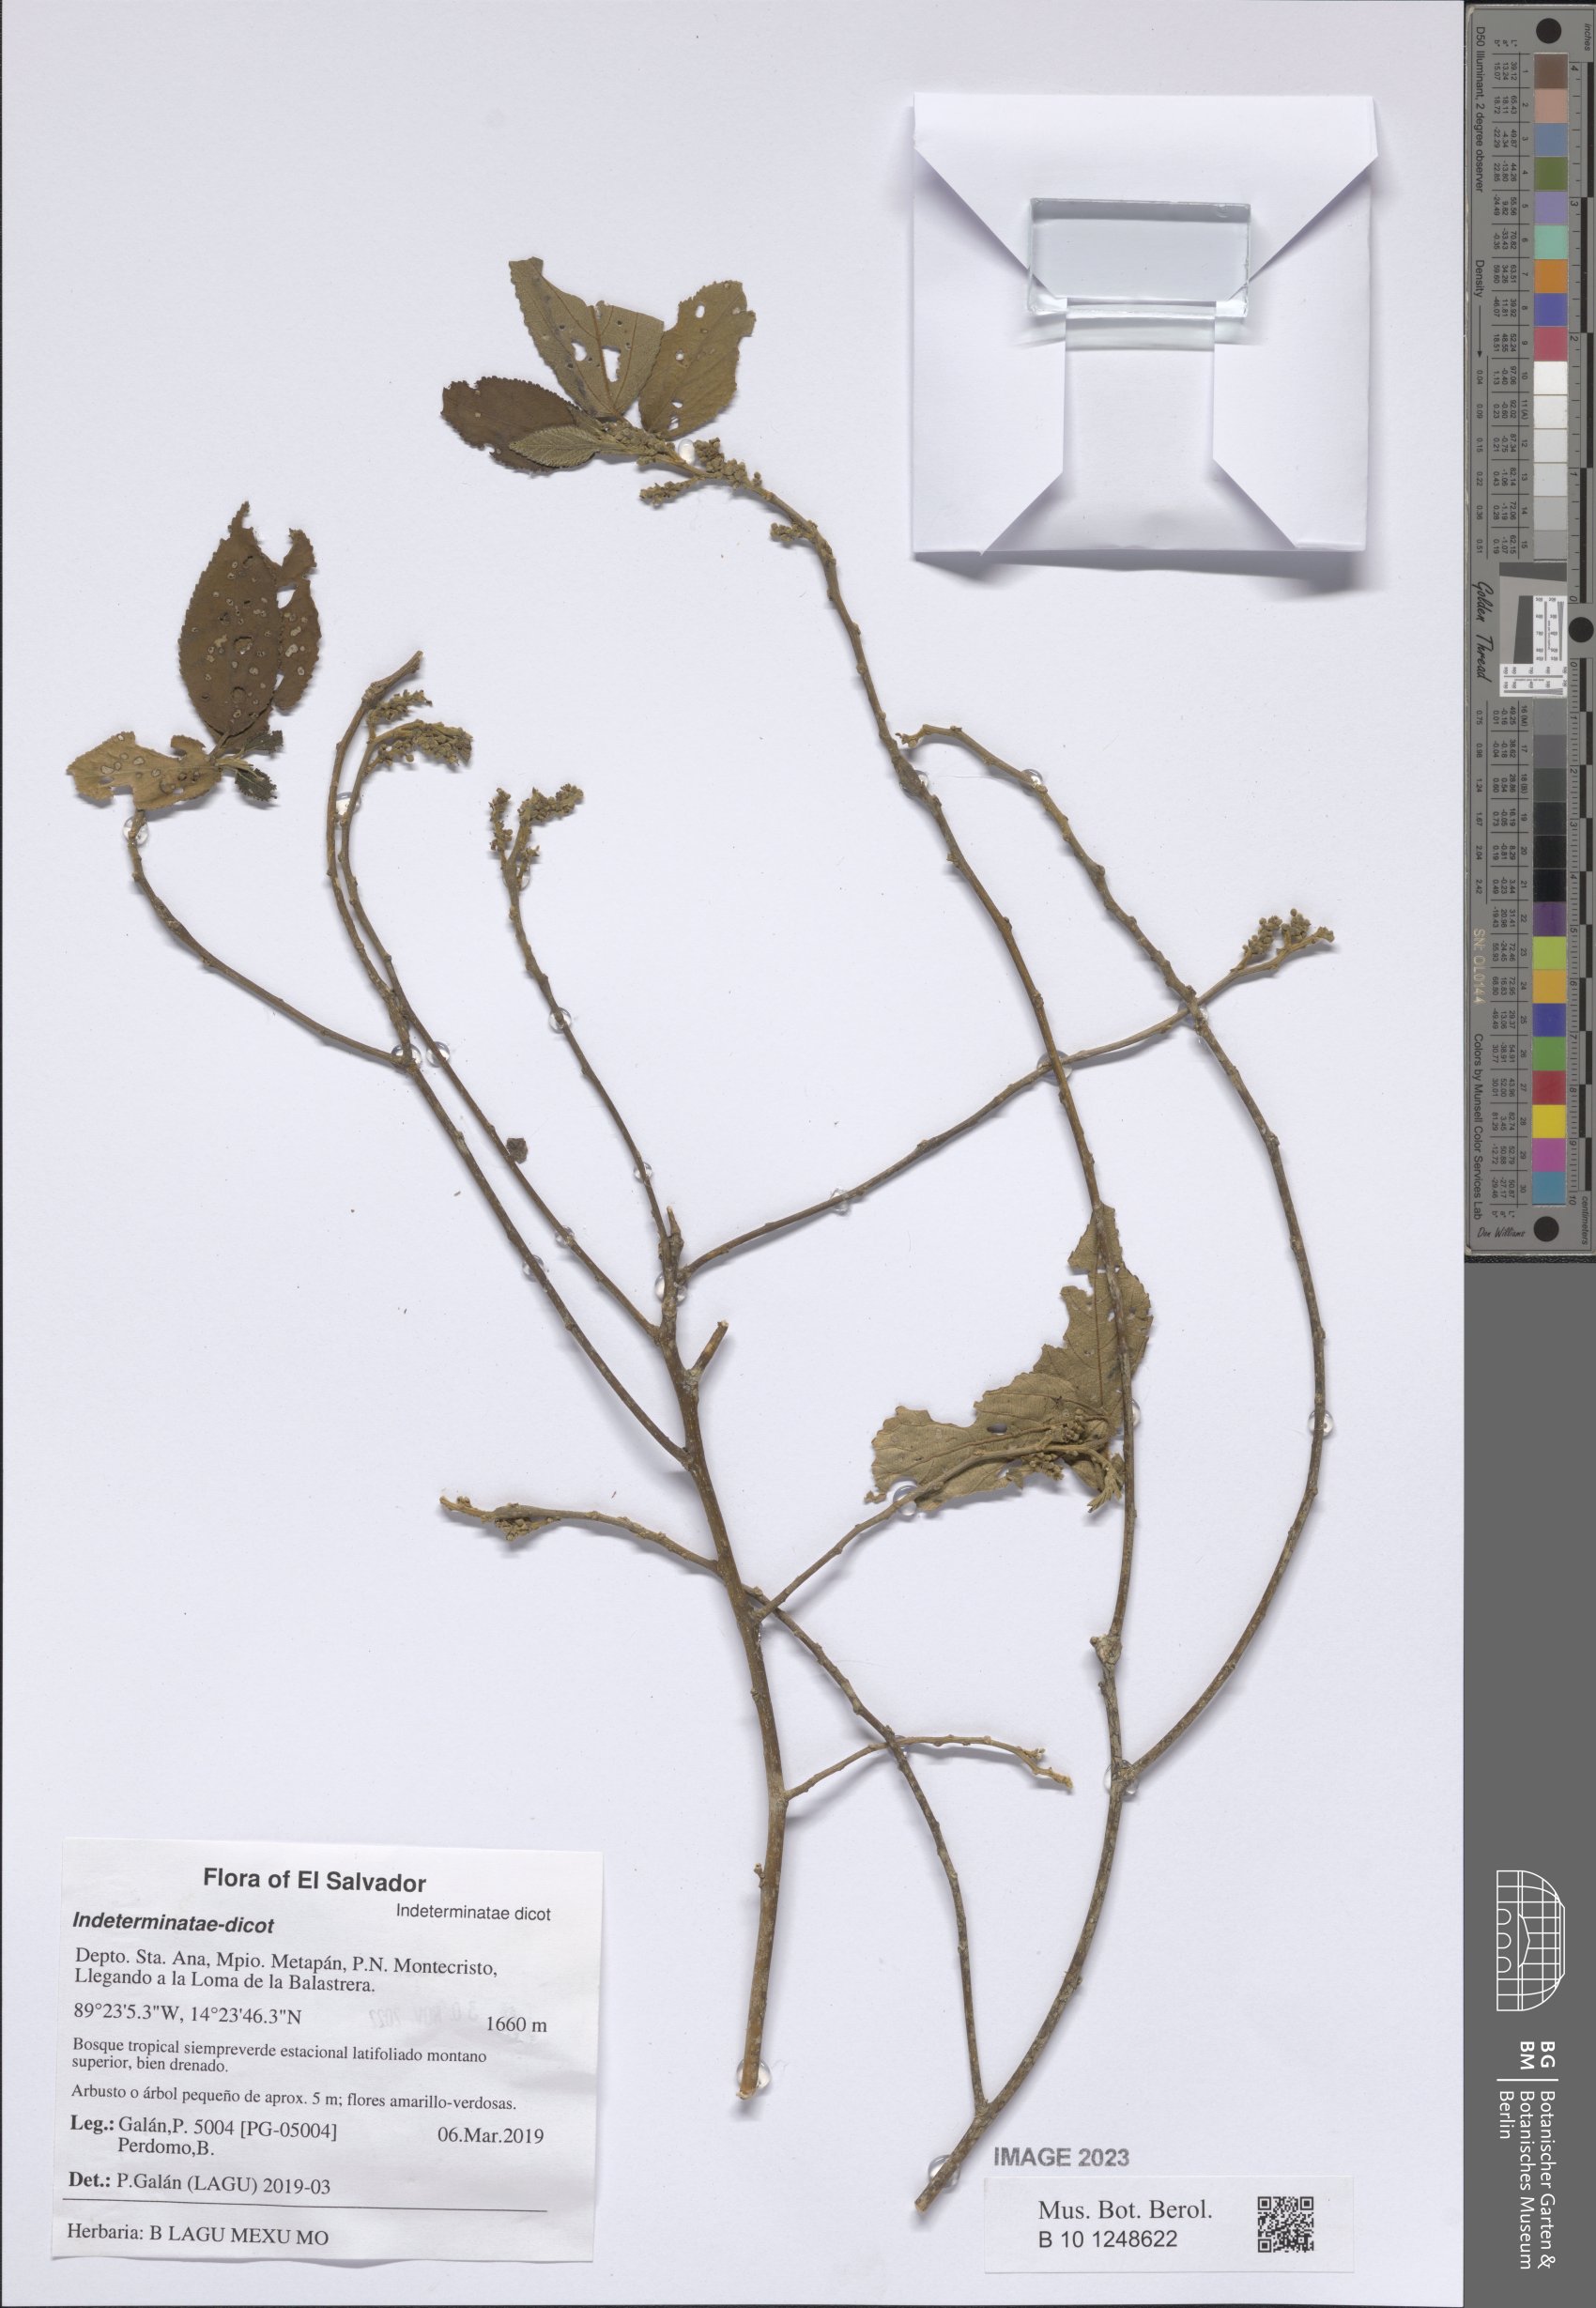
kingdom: Plantae
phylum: Tracheophyta
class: Magnoliopsida
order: Malpighiales
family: Euphorbiaceae
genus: Bernardia
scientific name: Bernardia
